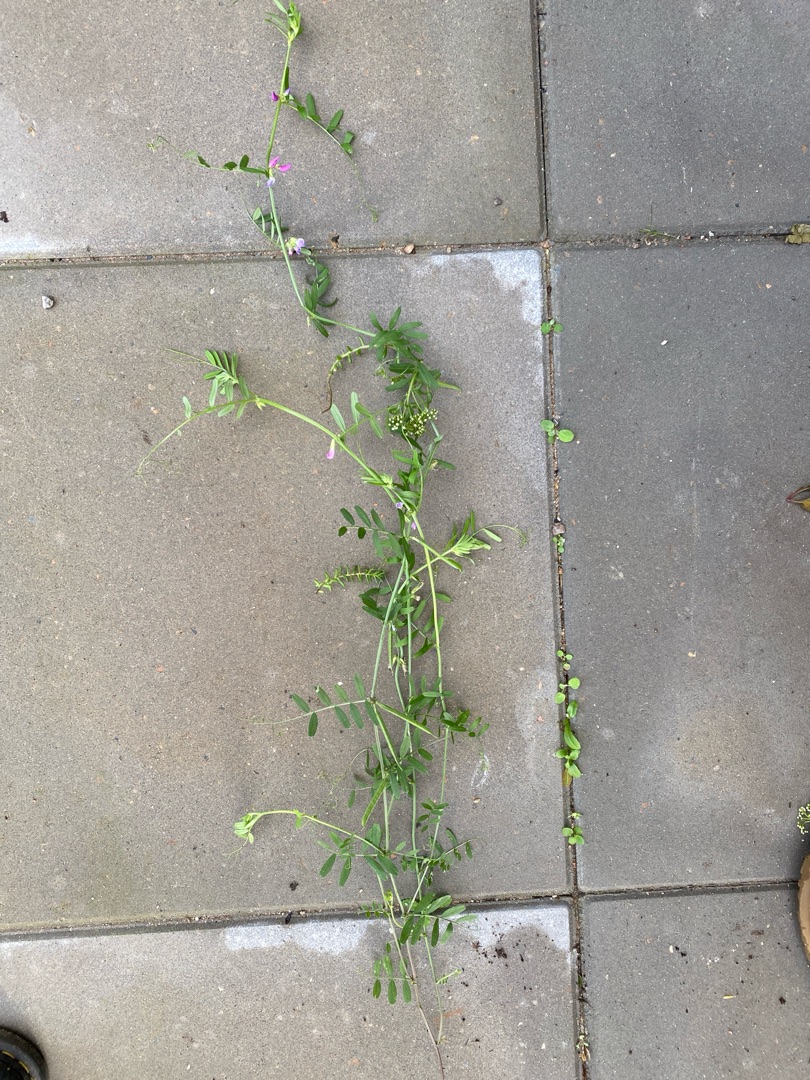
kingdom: Plantae
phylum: Tracheophyta
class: Magnoliopsida
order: Fabales
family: Fabaceae
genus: Vicia
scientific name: Vicia sativa
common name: Foder-vikke
